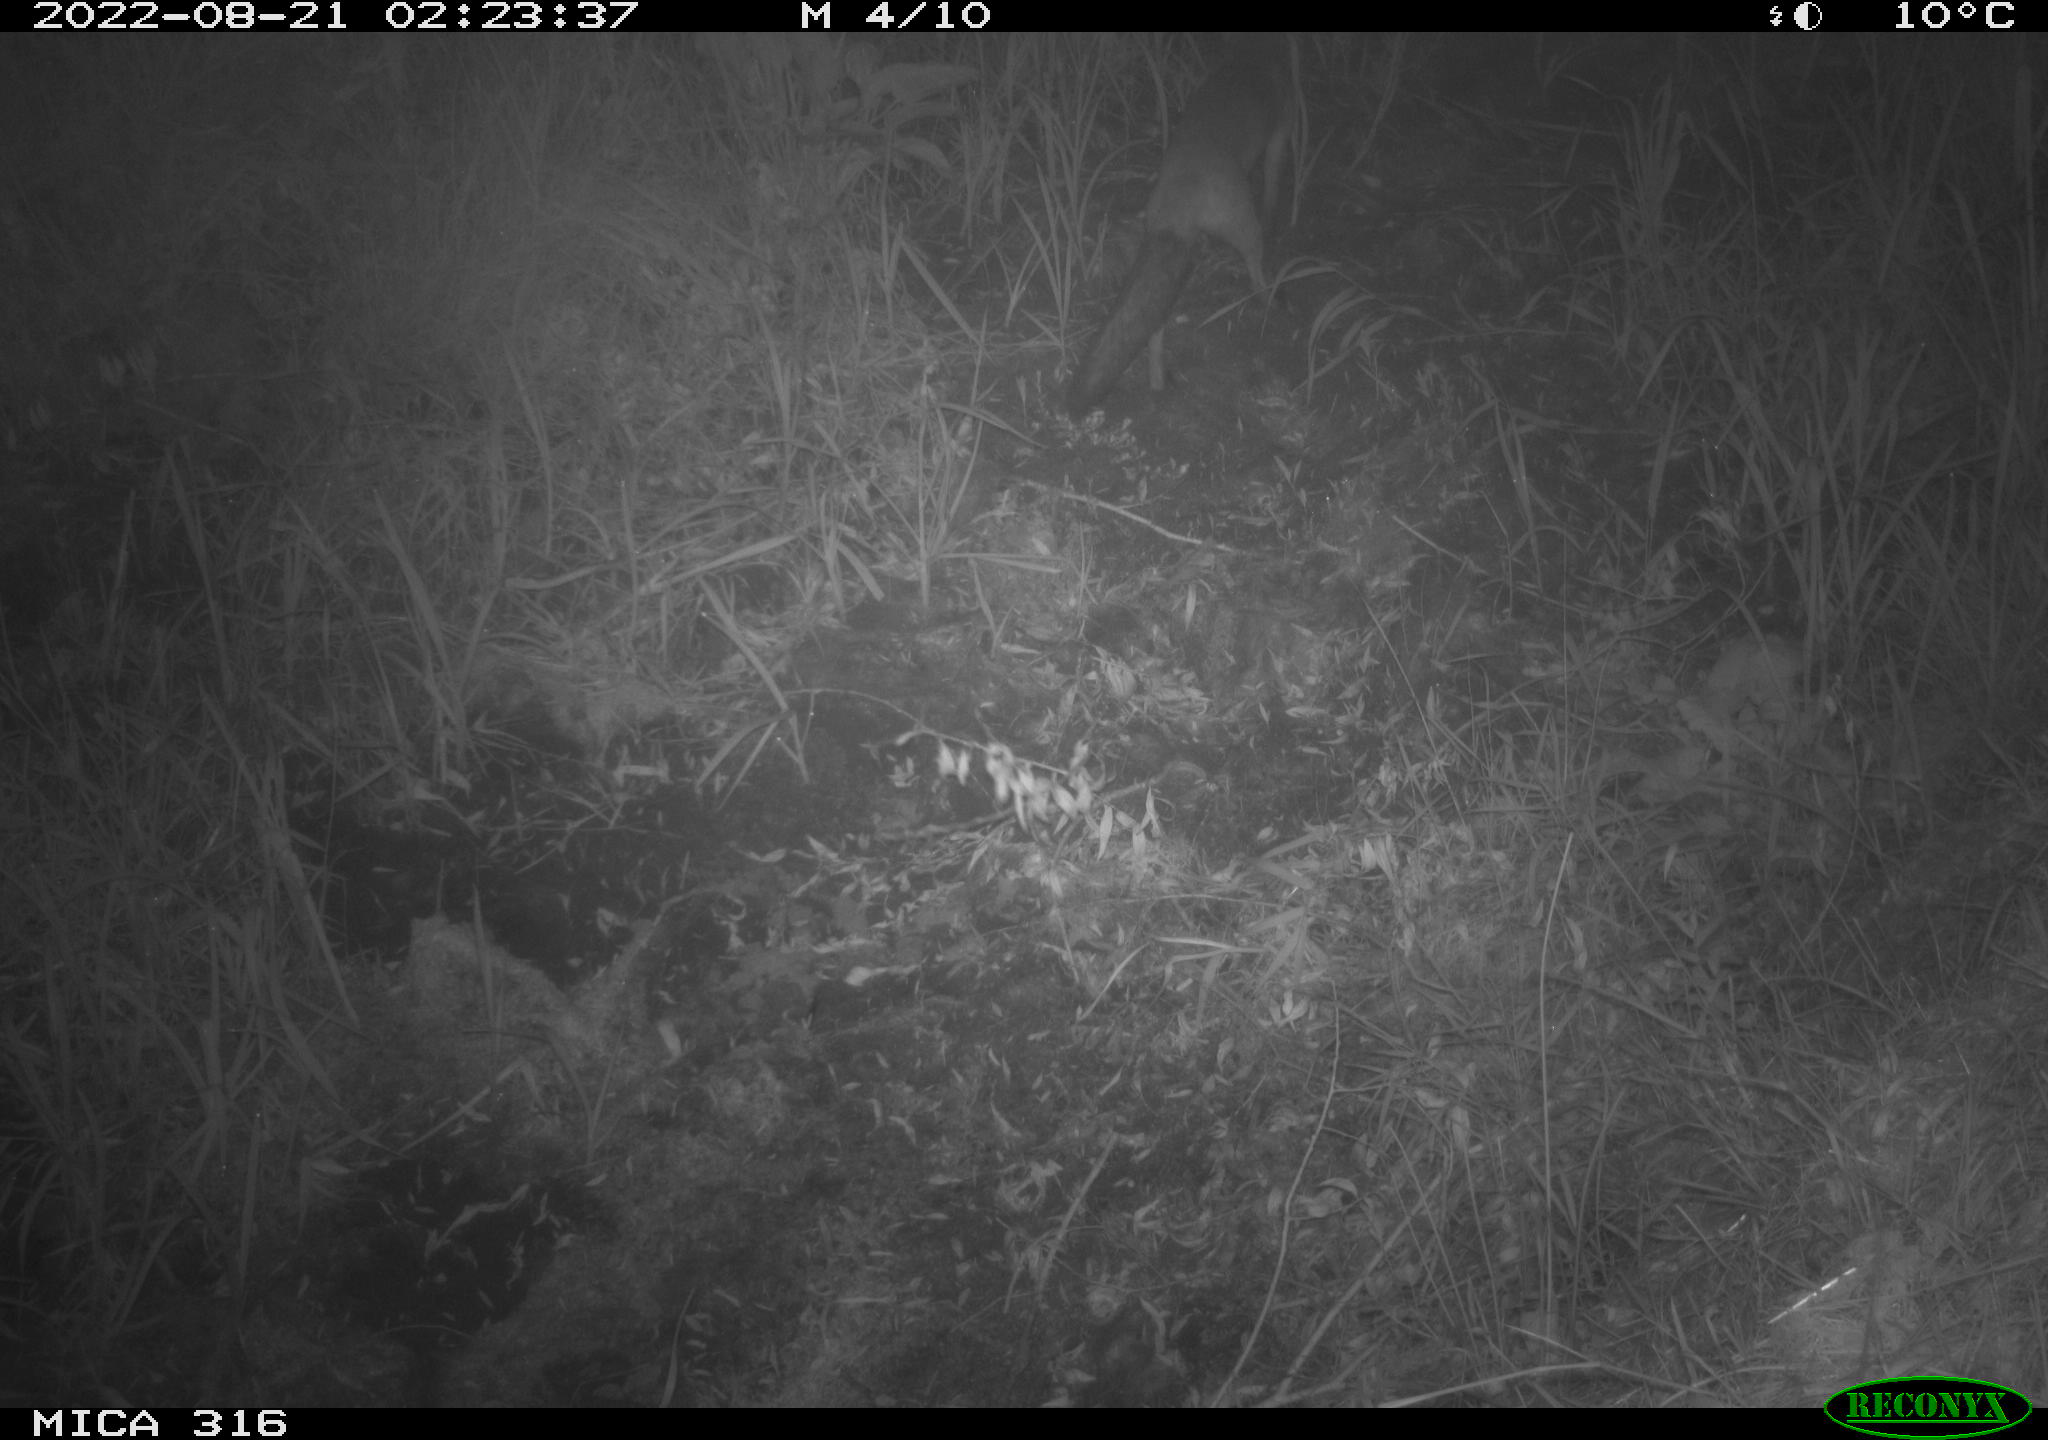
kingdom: Animalia
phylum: Chordata
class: Mammalia
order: Carnivora
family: Canidae
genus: Vulpes
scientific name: Vulpes vulpes
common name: Red fox
